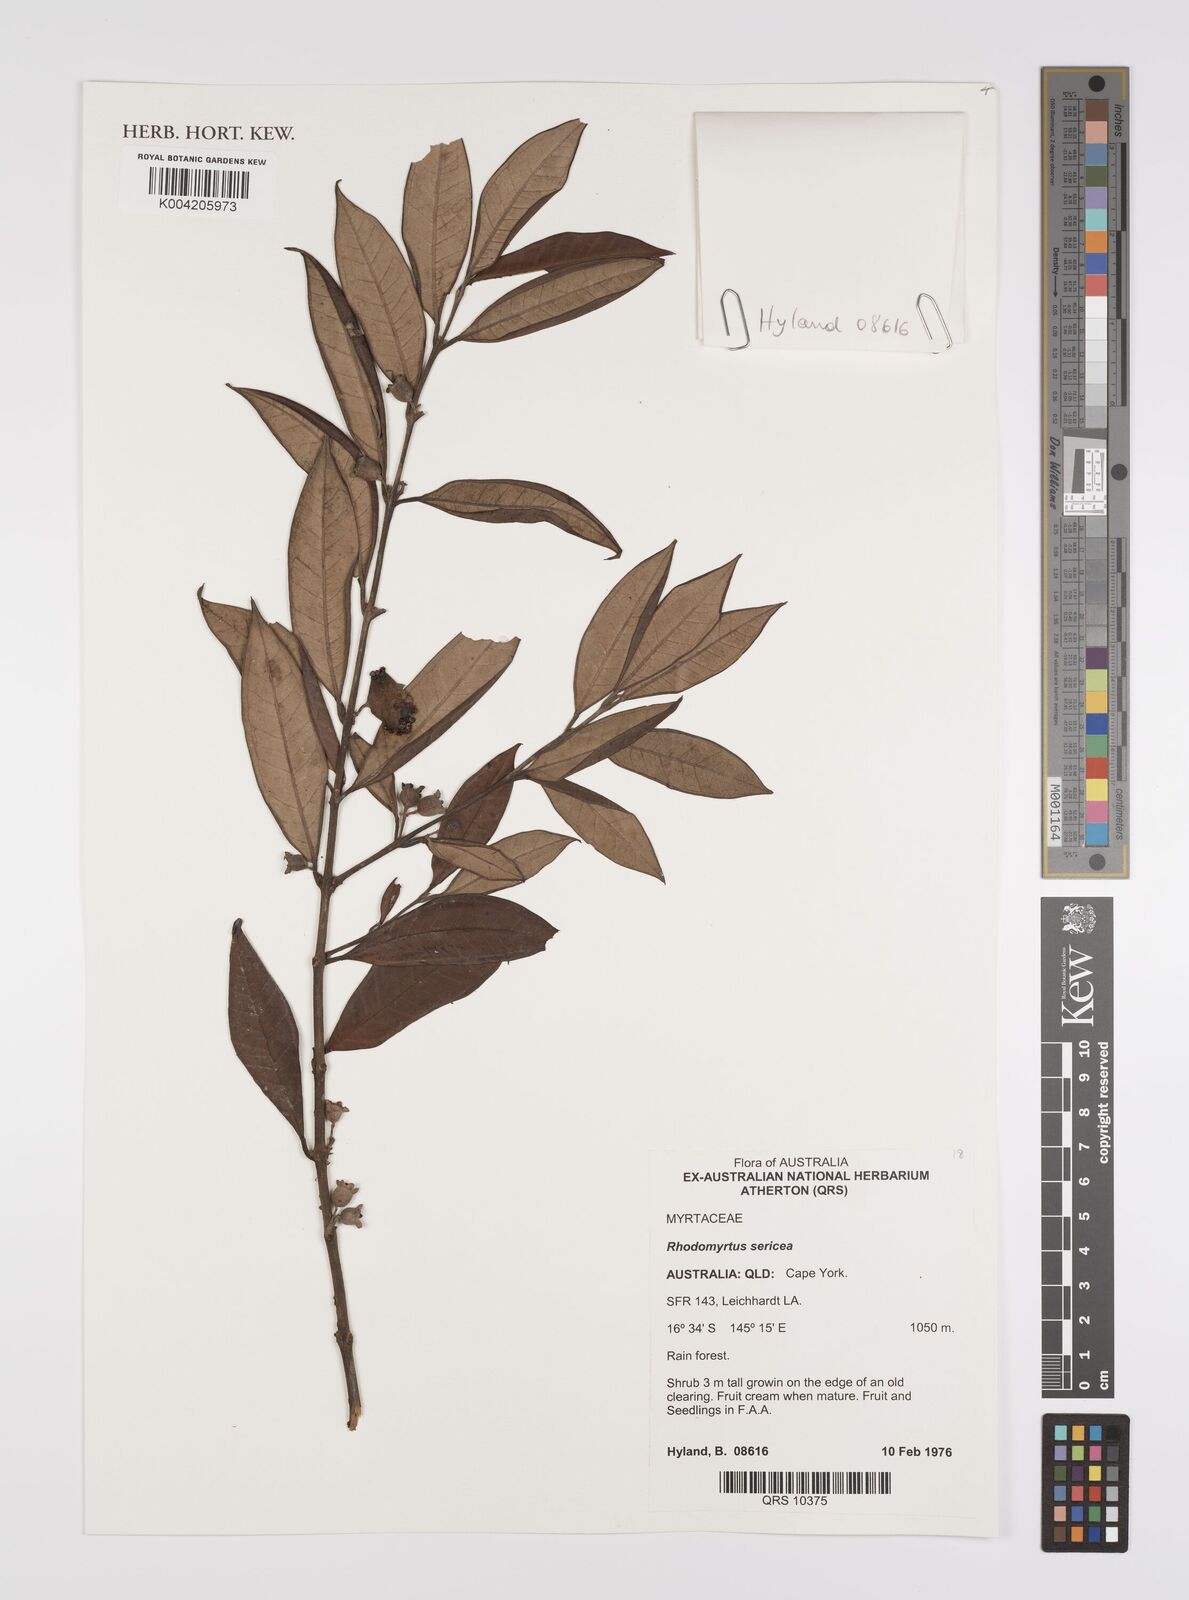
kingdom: Plantae
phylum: Tracheophyta
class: Magnoliopsida
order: Myrtales
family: Myrtaceae
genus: Rhodomyrtus
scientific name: Rhodomyrtus sericea
